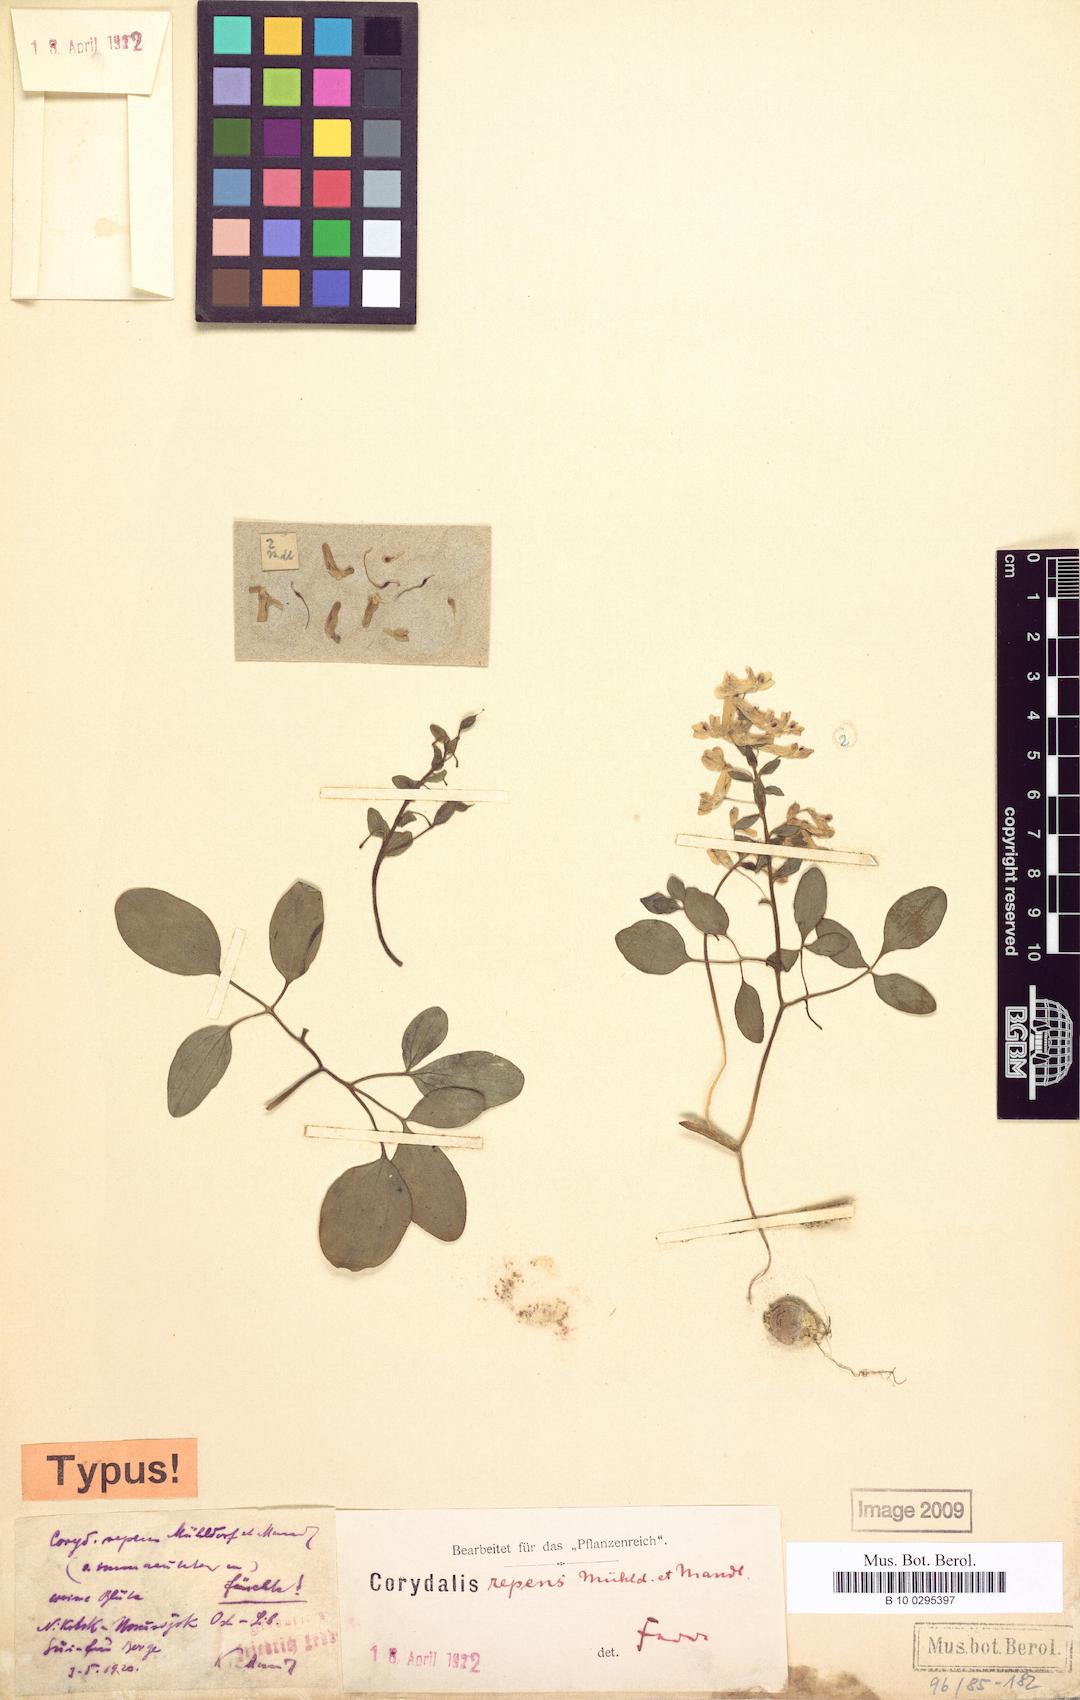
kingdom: Plantae
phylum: Tracheophyta
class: Magnoliopsida
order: Ranunculales
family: Papaveraceae
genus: Corydalis
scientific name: Corydalis repens
